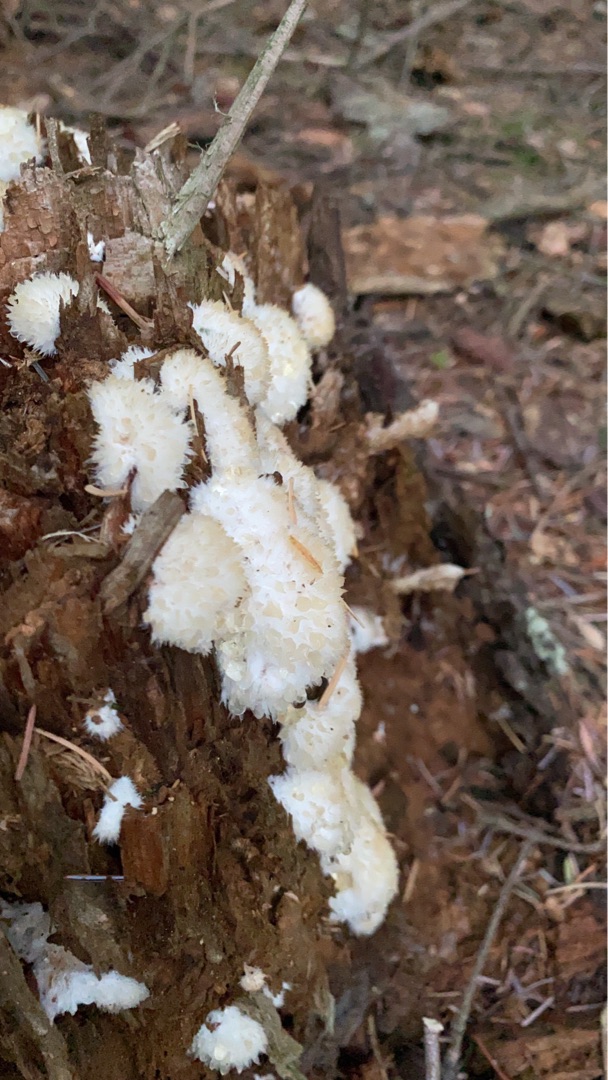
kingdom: Fungi
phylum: Basidiomycota
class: Agaricomycetes
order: Polyporales
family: Dacryobolaceae
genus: Postia
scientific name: Postia ptychogaster
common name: Støvende kødporesvamp
